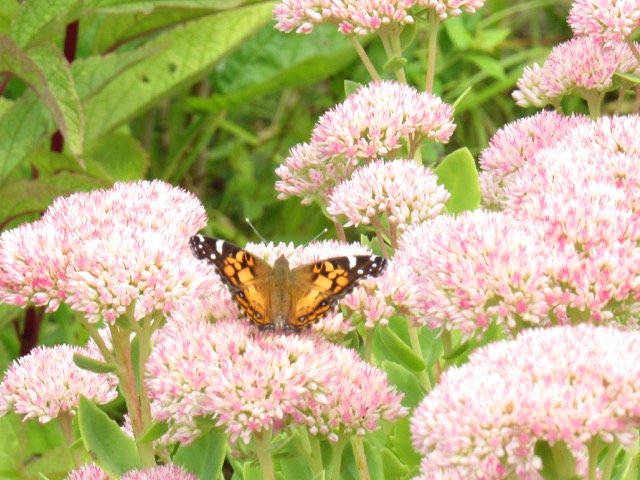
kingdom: Animalia
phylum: Arthropoda
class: Insecta
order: Lepidoptera
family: Nymphalidae
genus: Vanessa
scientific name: Vanessa virginiensis
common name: American Lady
